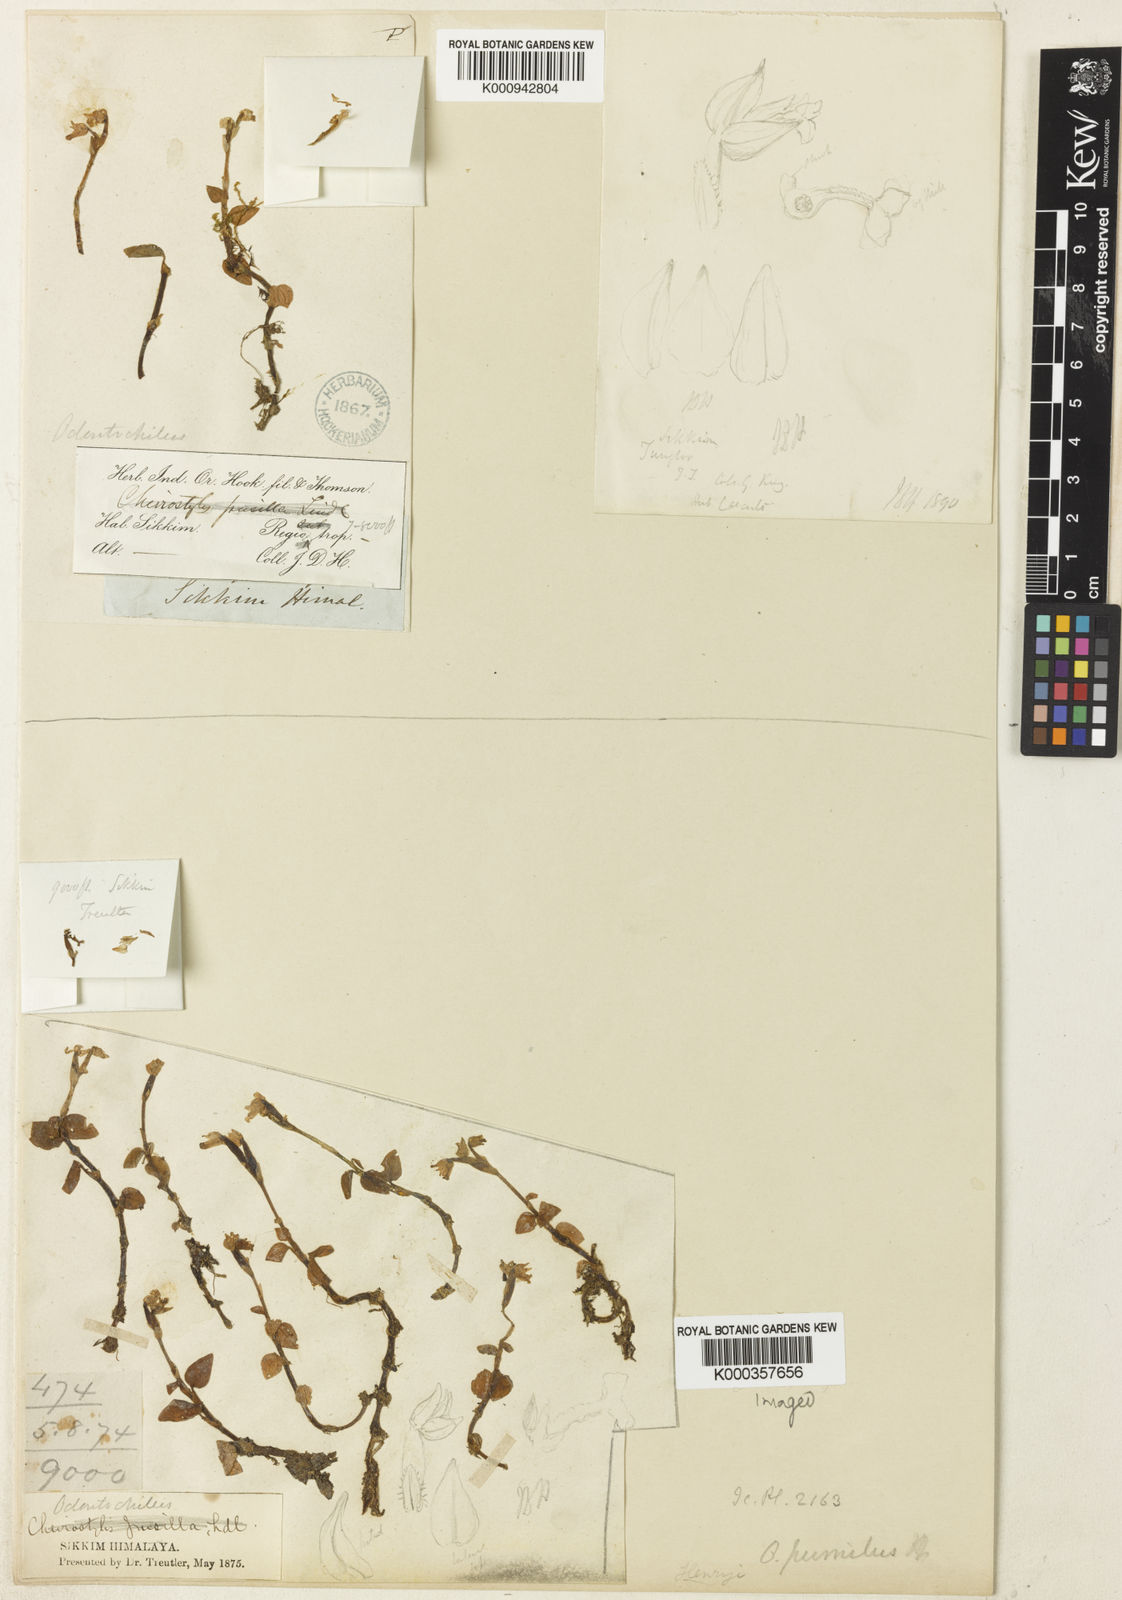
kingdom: Plantae
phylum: Tracheophyta
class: Liliopsida
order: Asparagales
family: Orchidaceae
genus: Odontochilus
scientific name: Odontochilus pumilus
